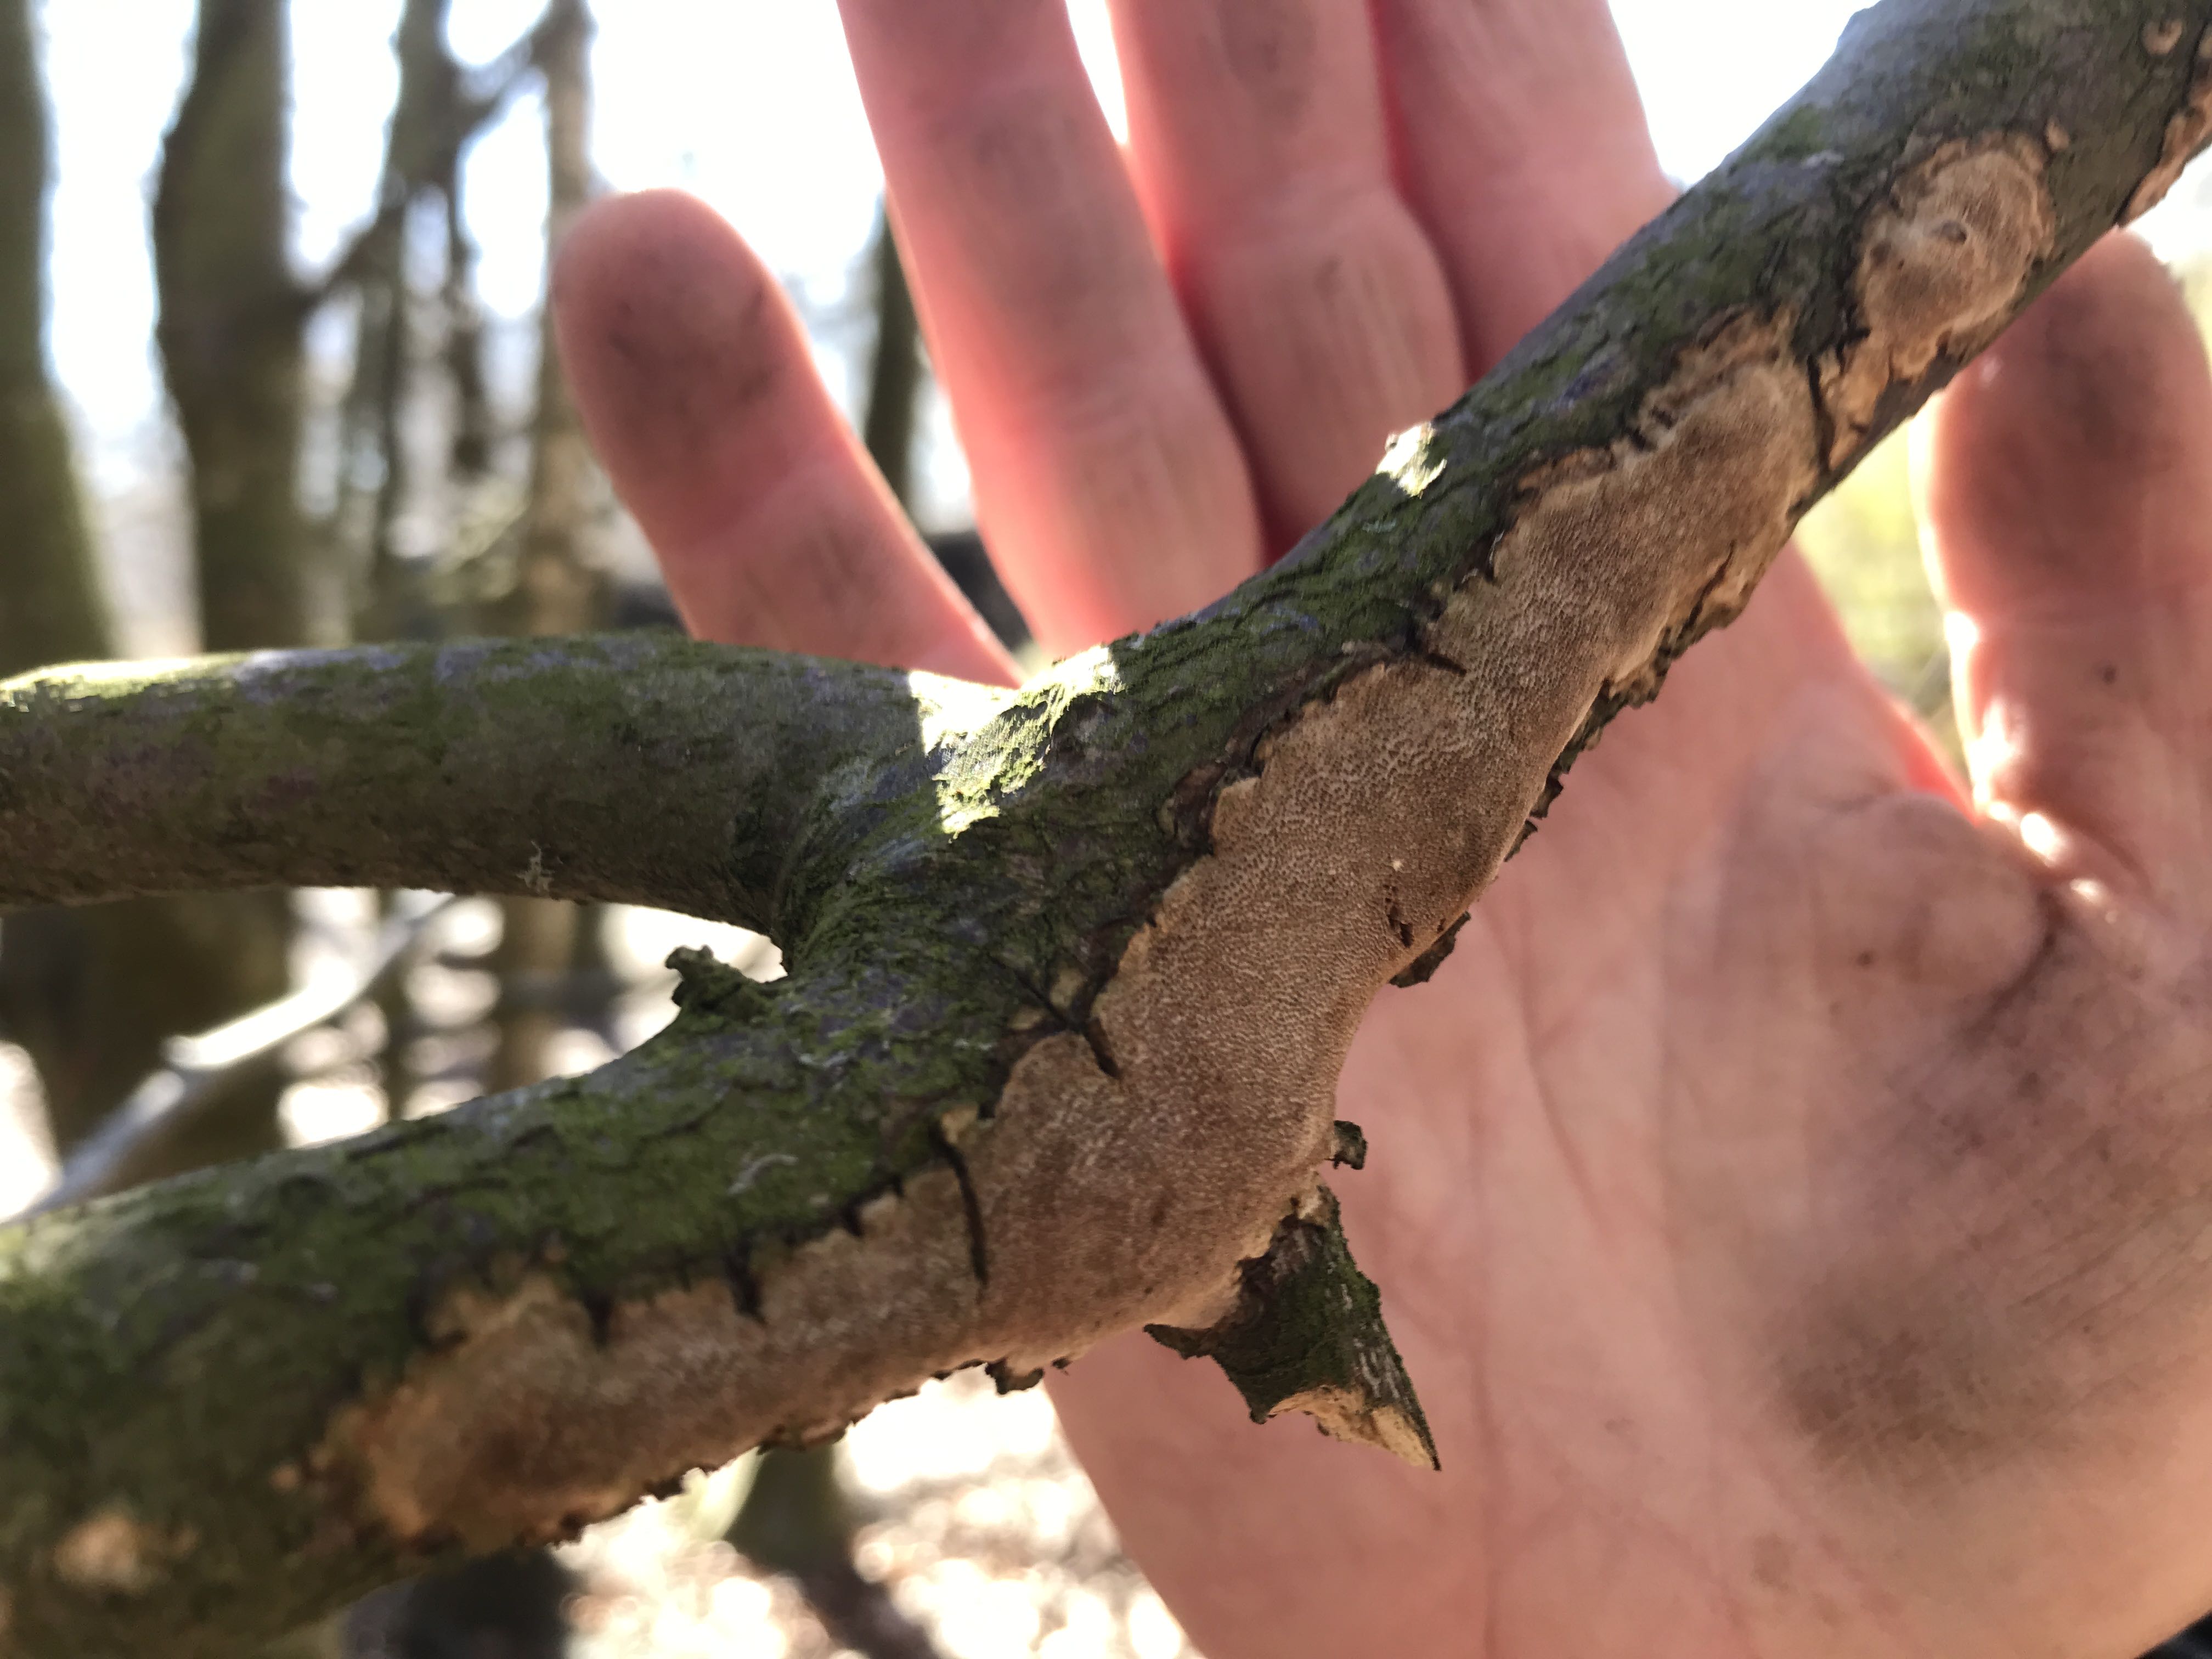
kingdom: Fungi
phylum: Basidiomycota
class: Agaricomycetes
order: Hymenochaetales
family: Hymenochaetaceae
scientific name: Hymenochaetaceae
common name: børstesvampfamilien
